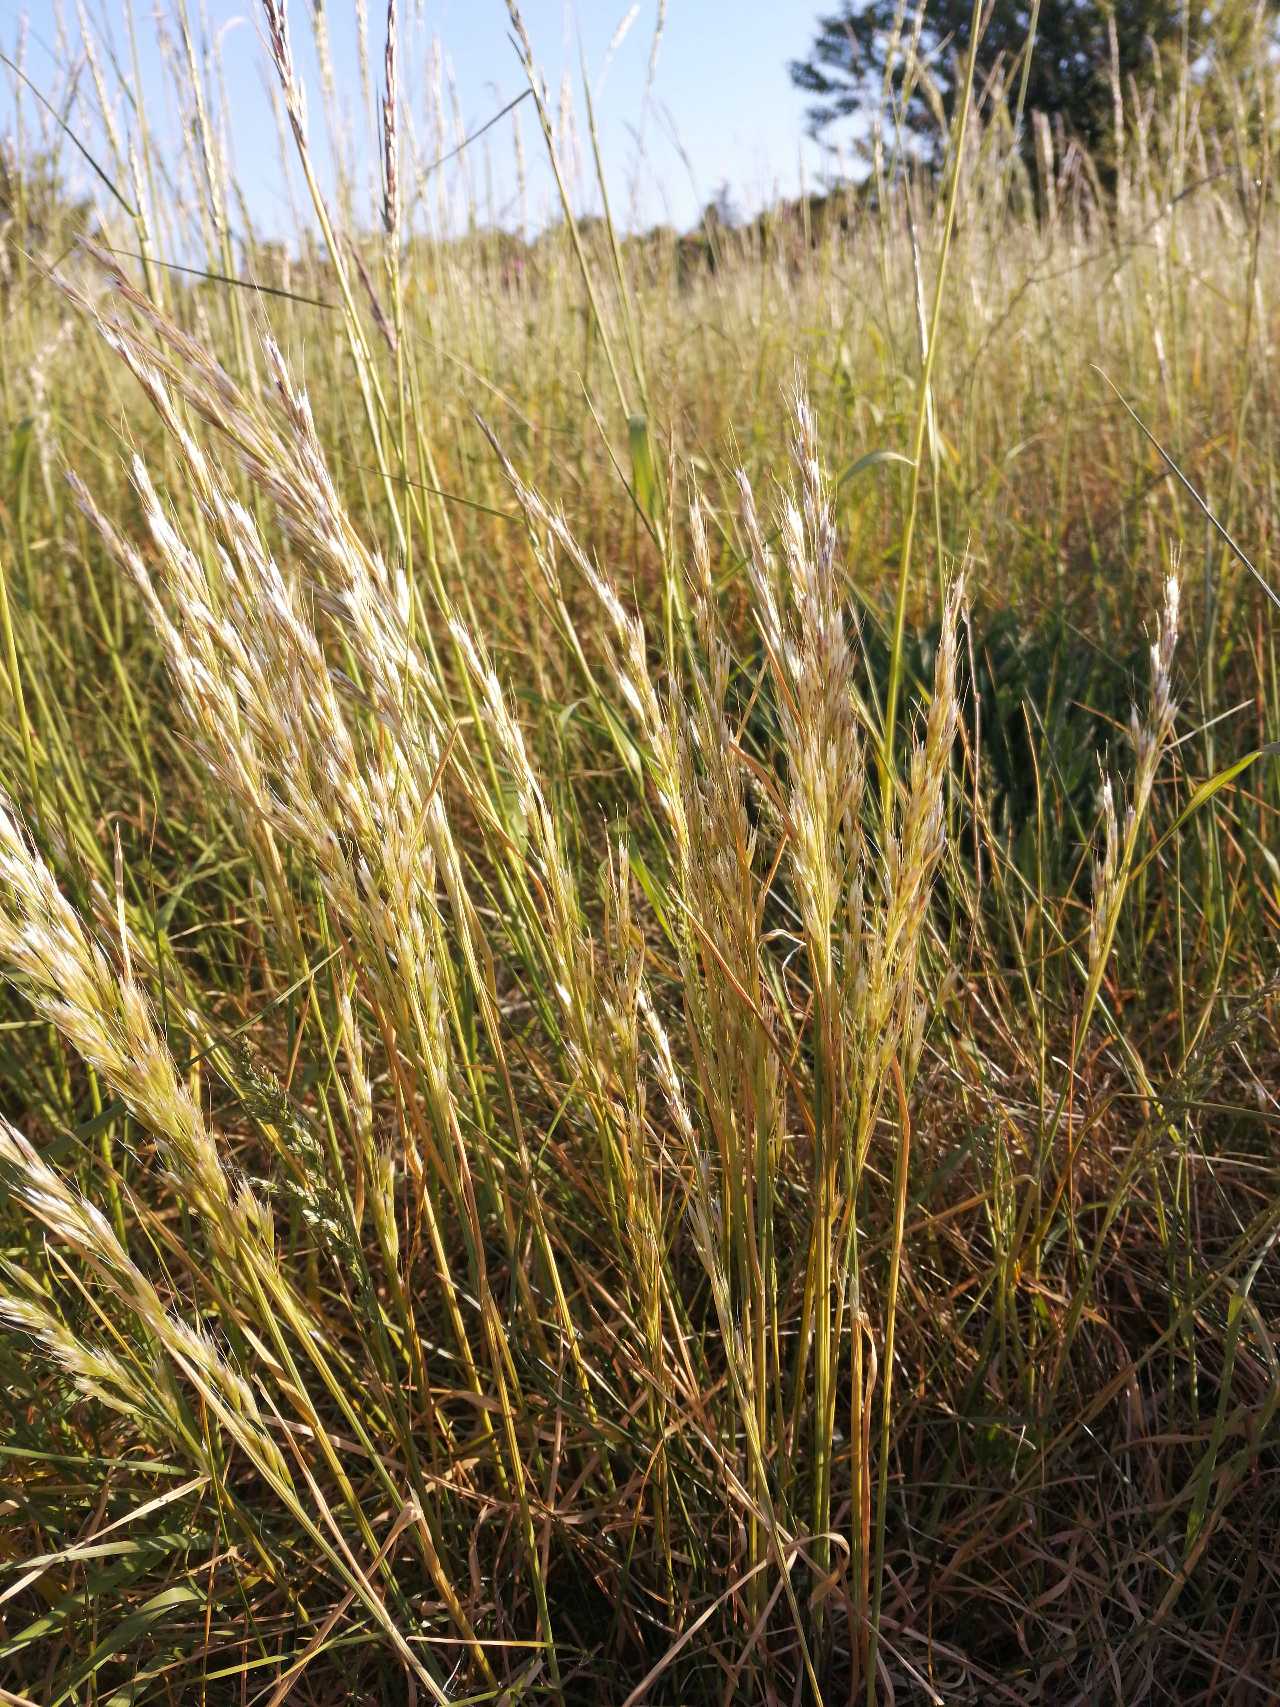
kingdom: Plantae
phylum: Tracheophyta
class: Liliopsida
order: Poales
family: Poaceae
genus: Avenula
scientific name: Avenula pubescens
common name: Dunet havre
